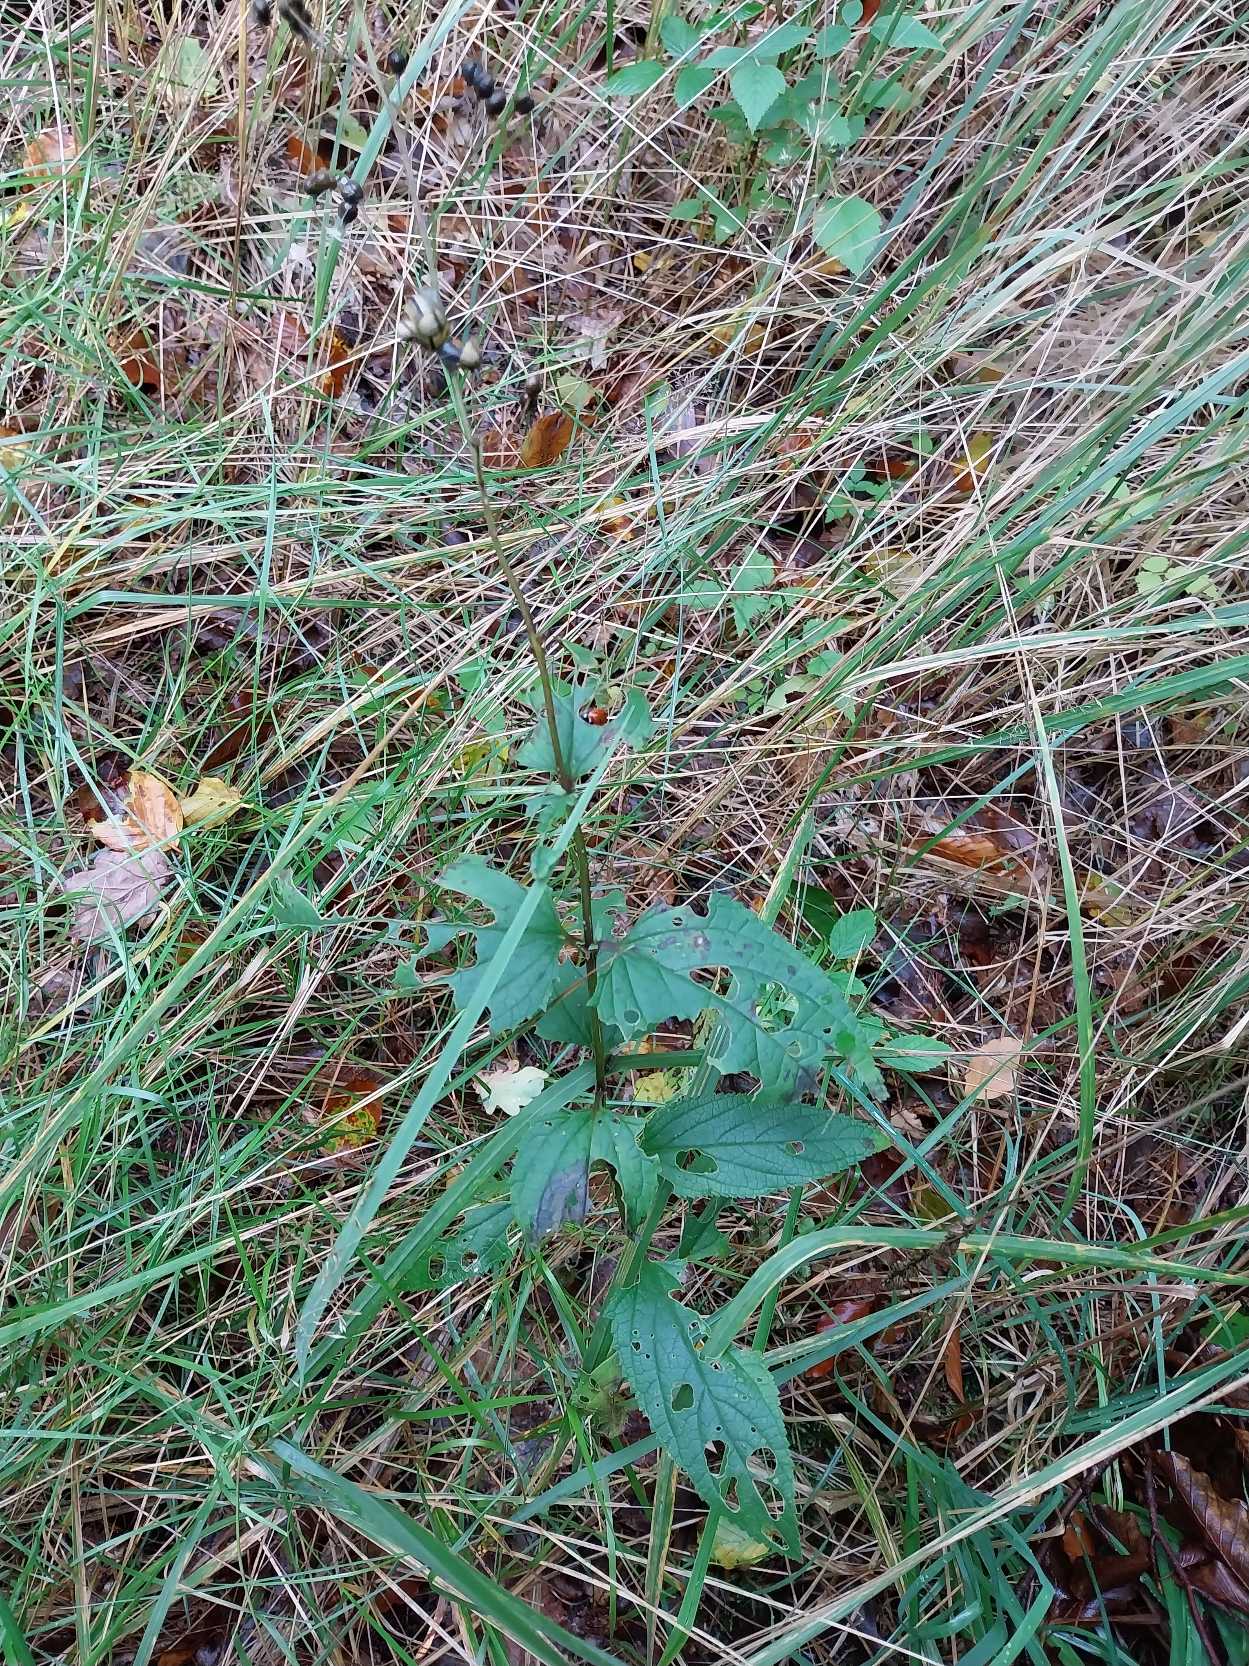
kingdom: Plantae
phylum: Tracheophyta
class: Magnoliopsida
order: Lamiales
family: Scrophulariaceae
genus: Scrophularia
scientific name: Scrophularia nodosa
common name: Knoldet brunrod
